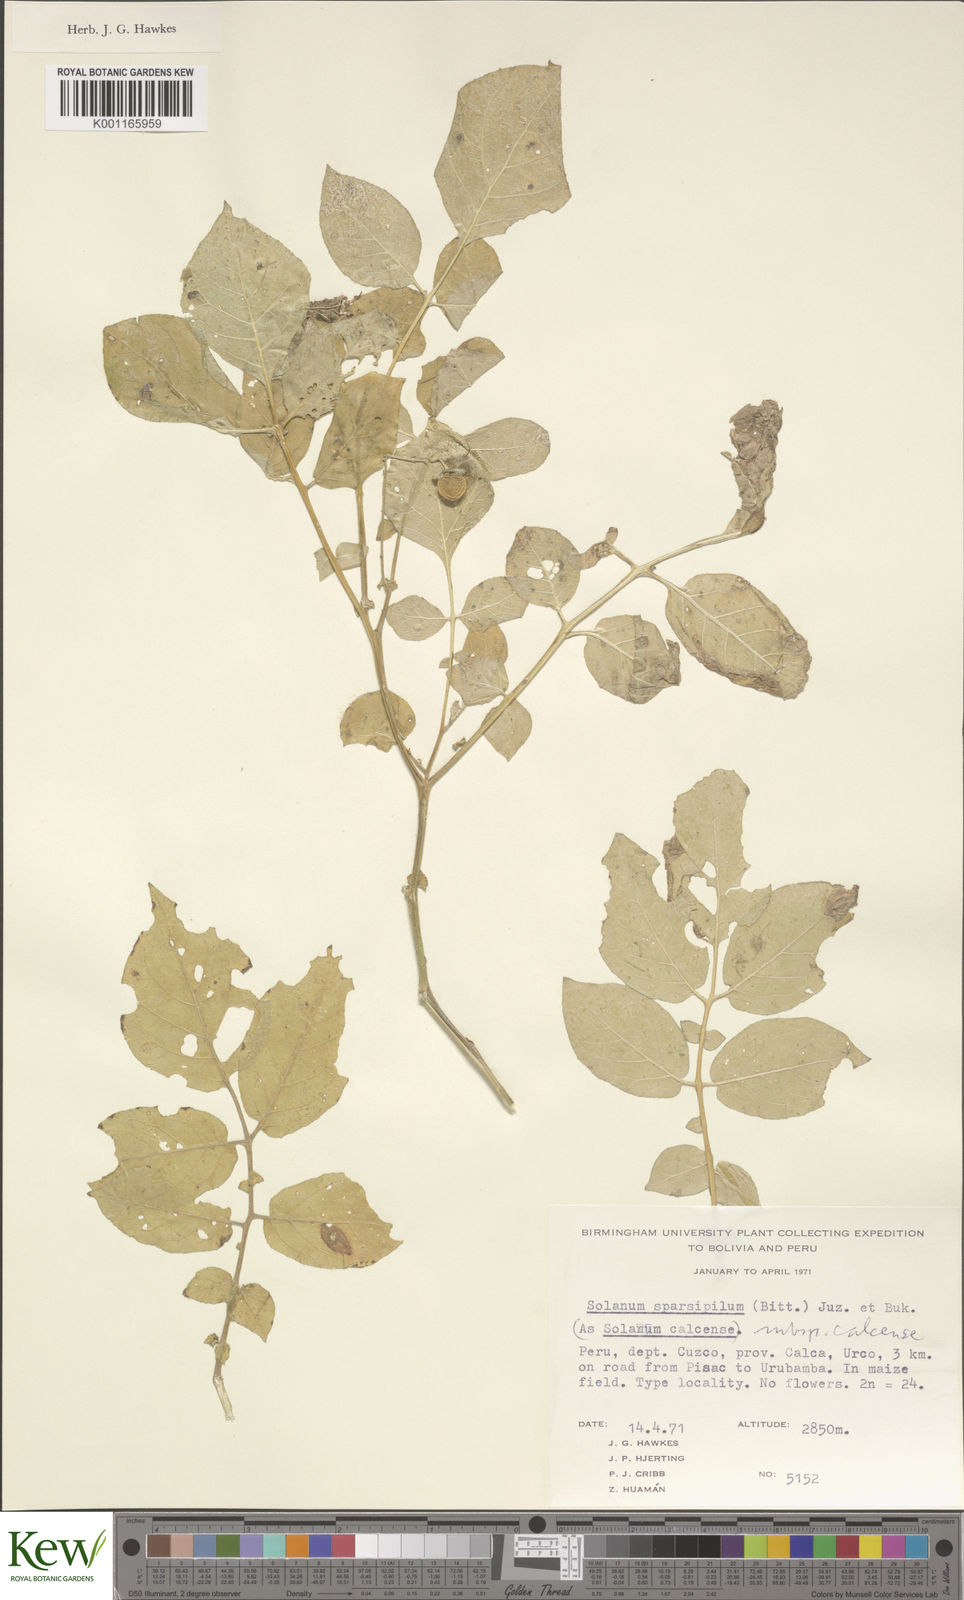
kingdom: Plantae
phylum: Tracheophyta
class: Magnoliopsida
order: Solanales
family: Solanaceae
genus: Solanum
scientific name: Solanum brevicaule
